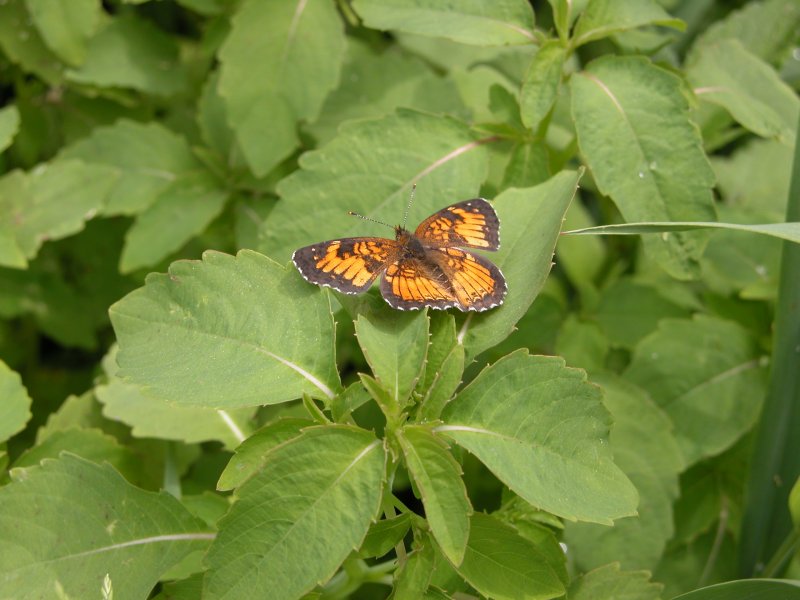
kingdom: Animalia
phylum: Arthropoda
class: Insecta
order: Lepidoptera
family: Nymphalidae
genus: Chlosyne
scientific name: Chlosyne harrisii
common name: Harris's Checkerspot
